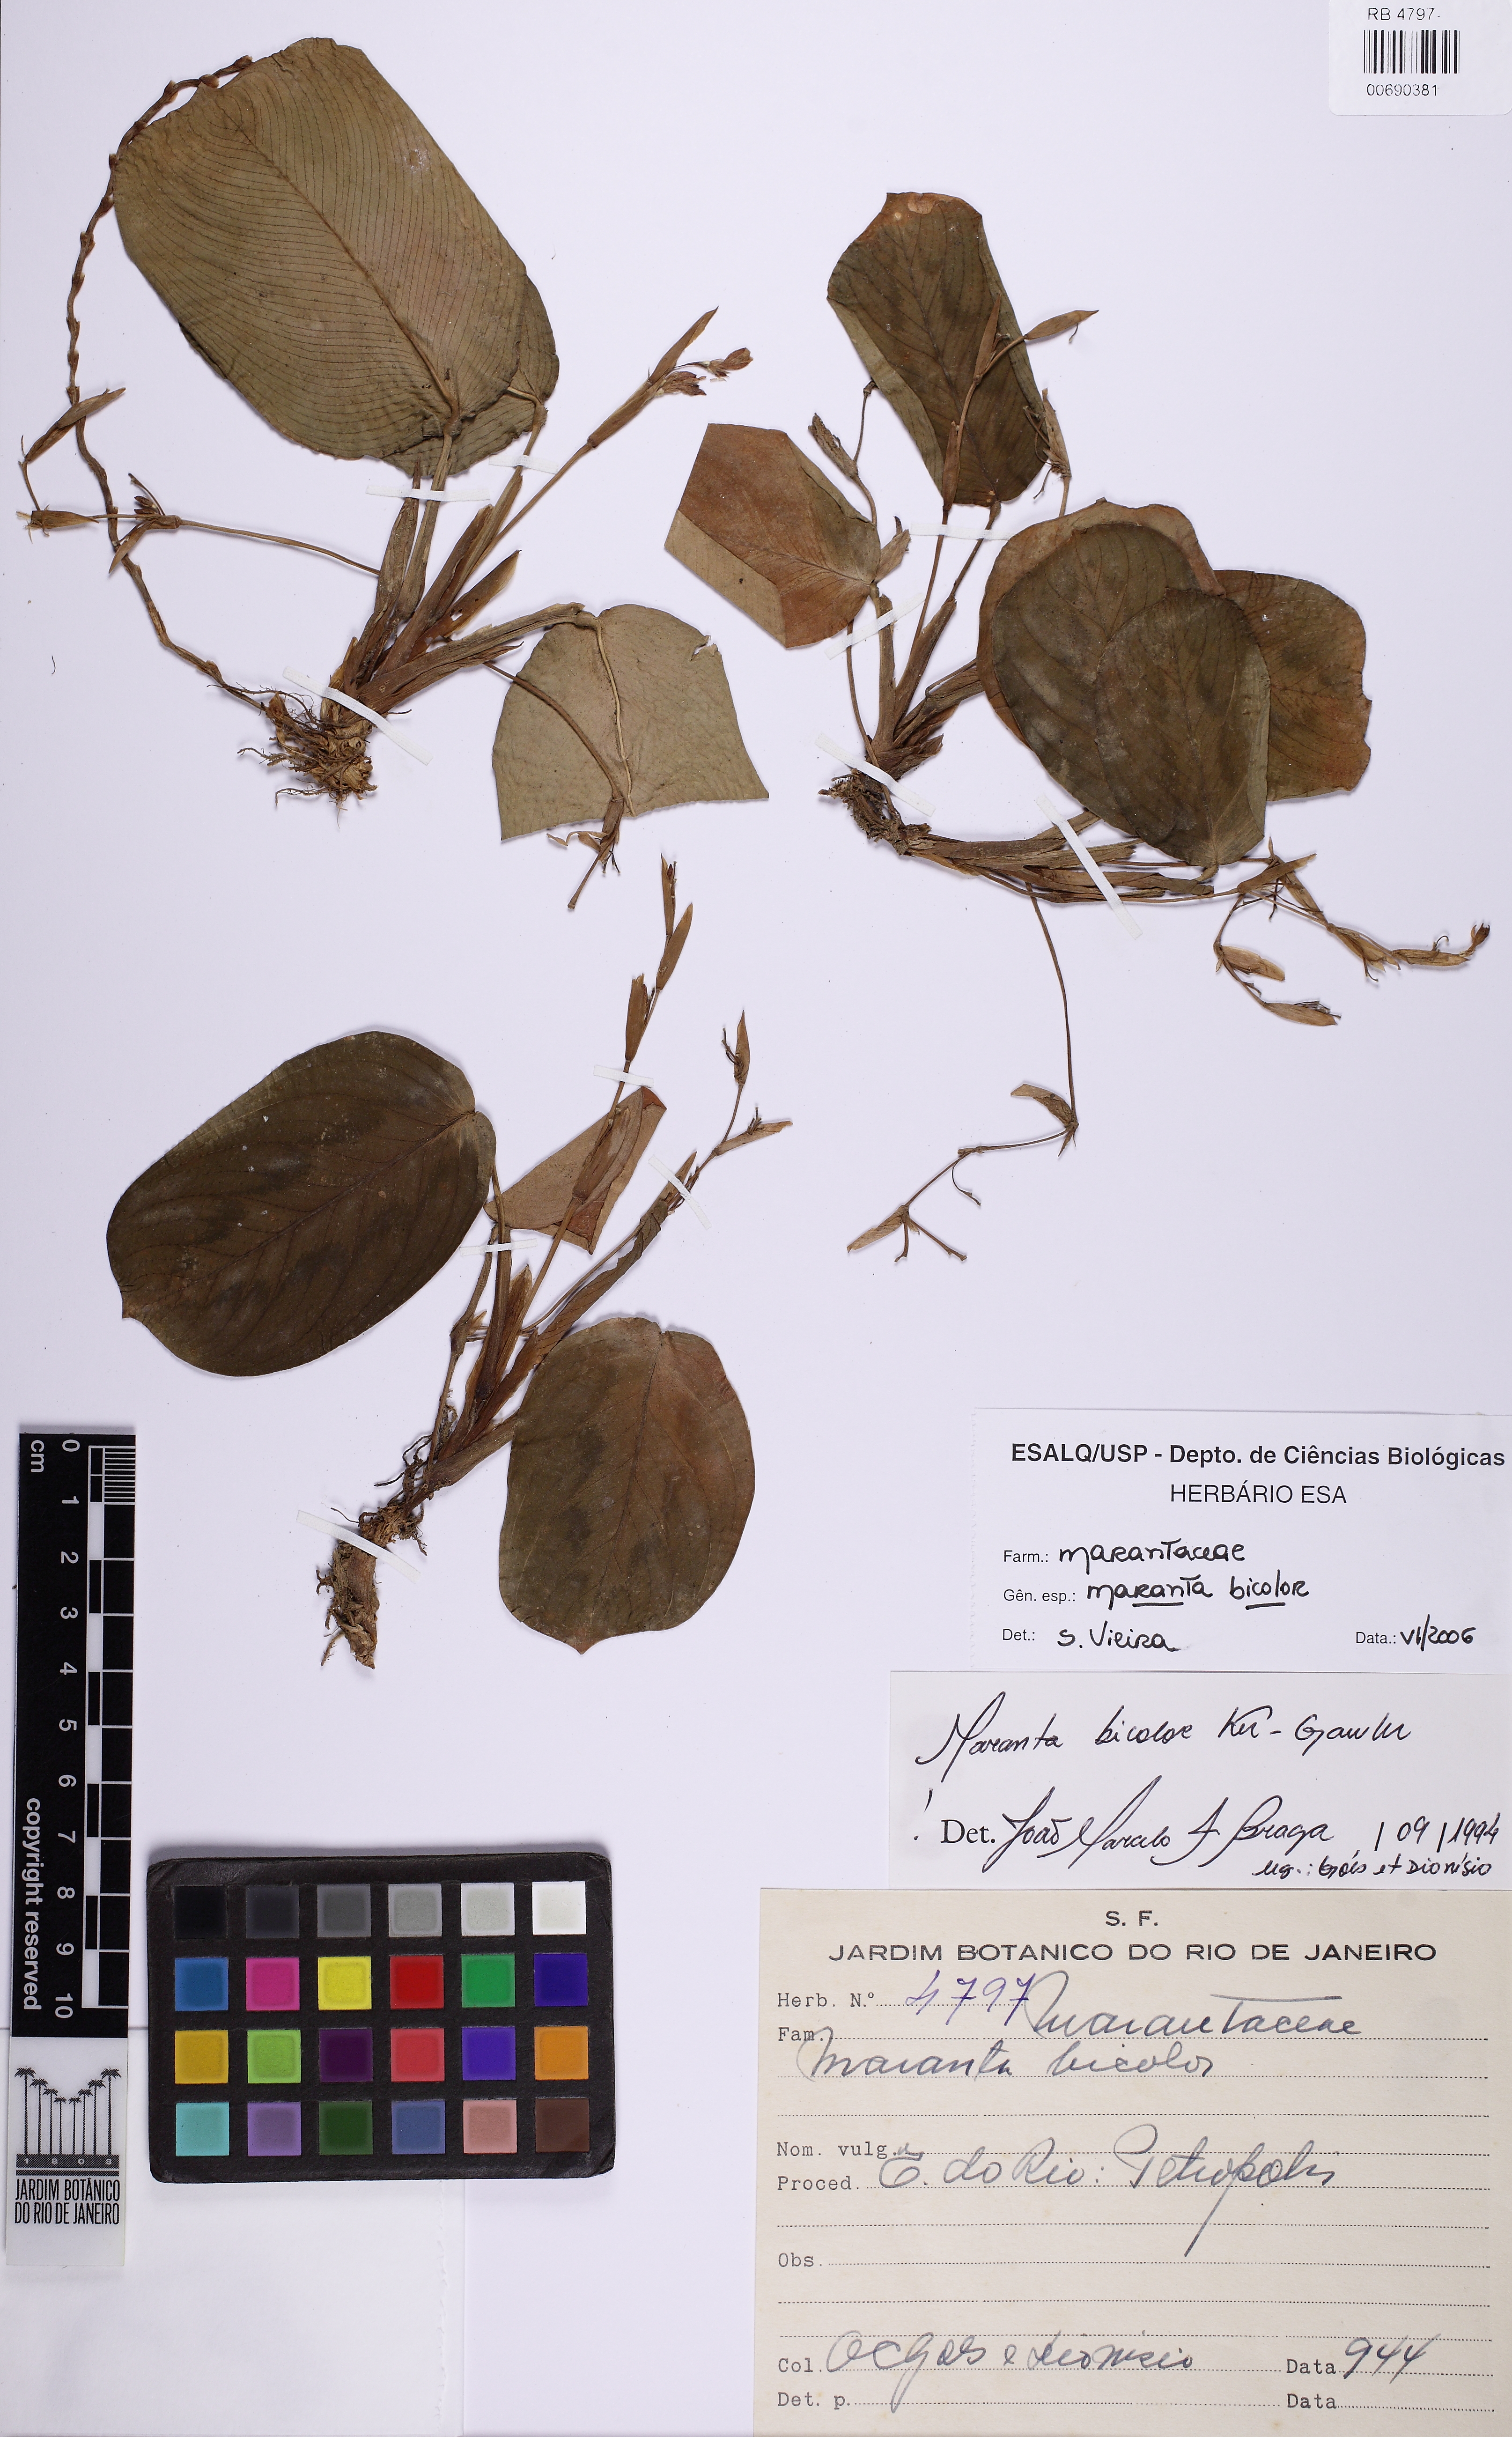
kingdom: Plantae
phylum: Tracheophyta
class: Liliopsida
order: Zingiberales
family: Marantaceae
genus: Maranta
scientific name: Maranta cristata
